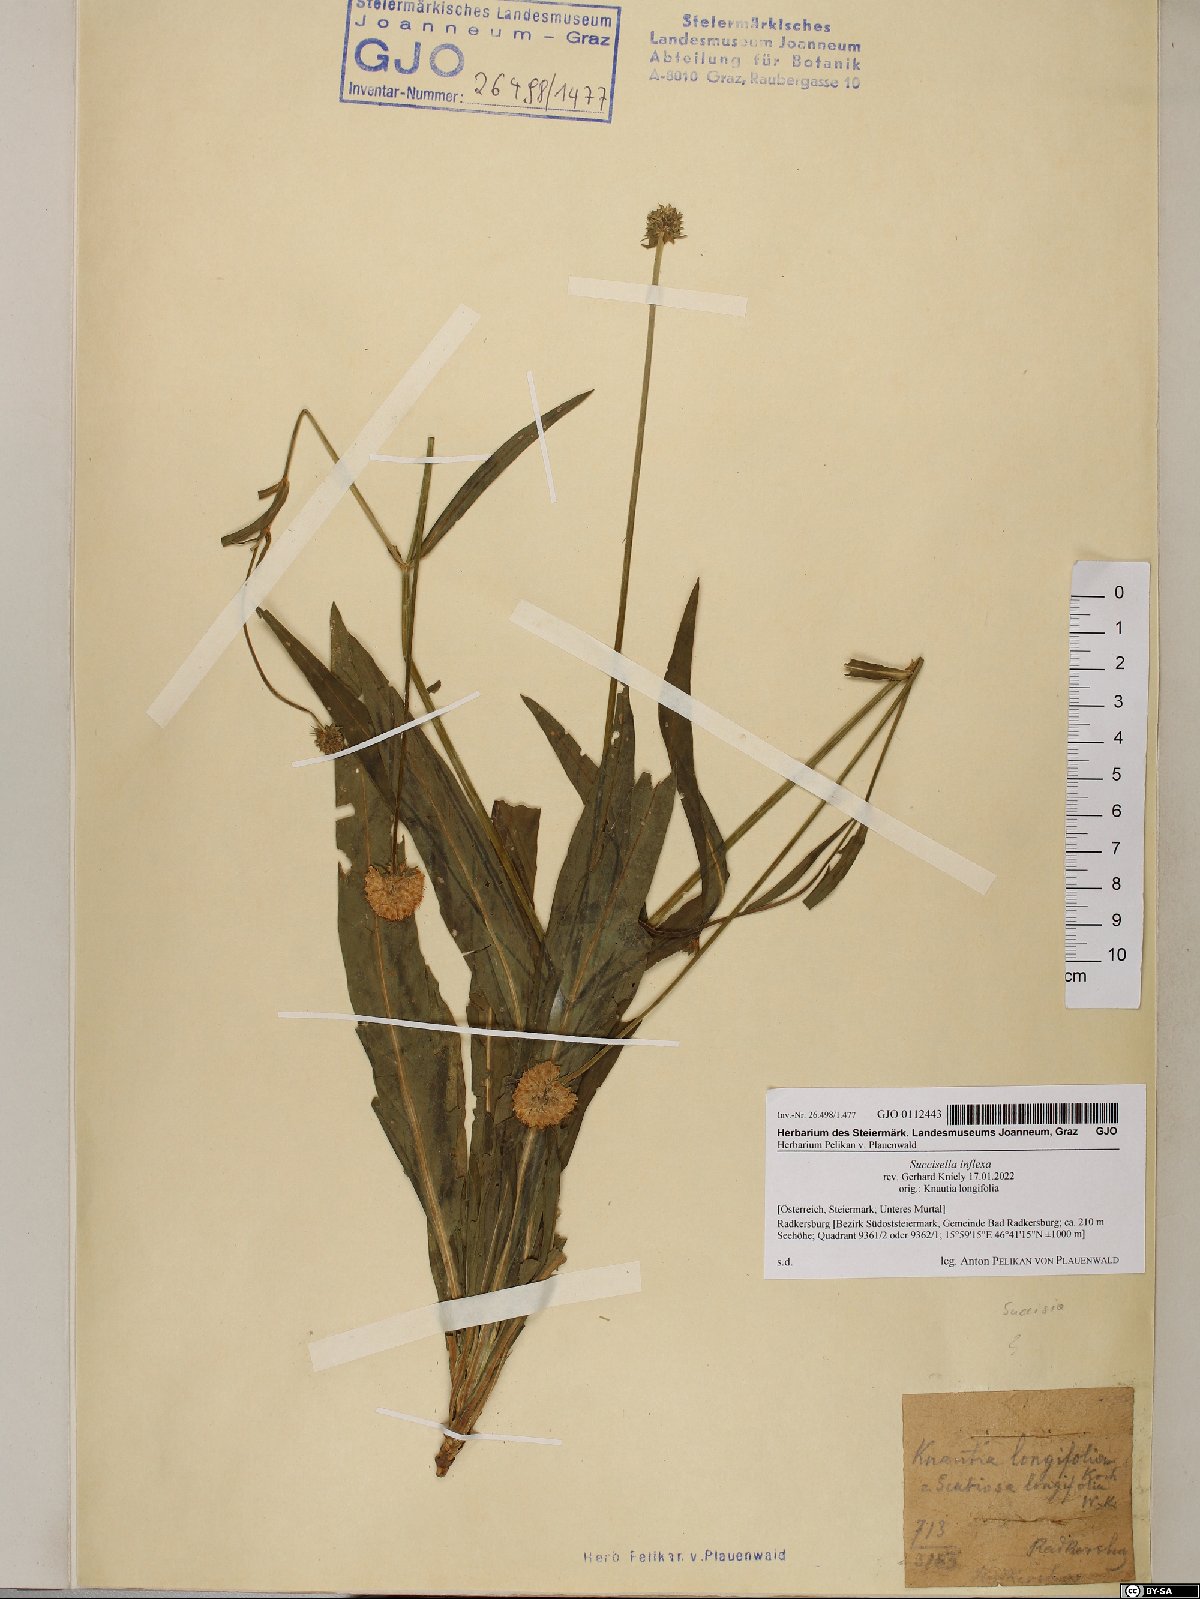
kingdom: Plantae
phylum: Tracheophyta
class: Magnoliopsida
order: Dipsacales
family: Caprifoliaceae
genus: Succisella
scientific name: Succisella inflexa
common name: Southern succisella
